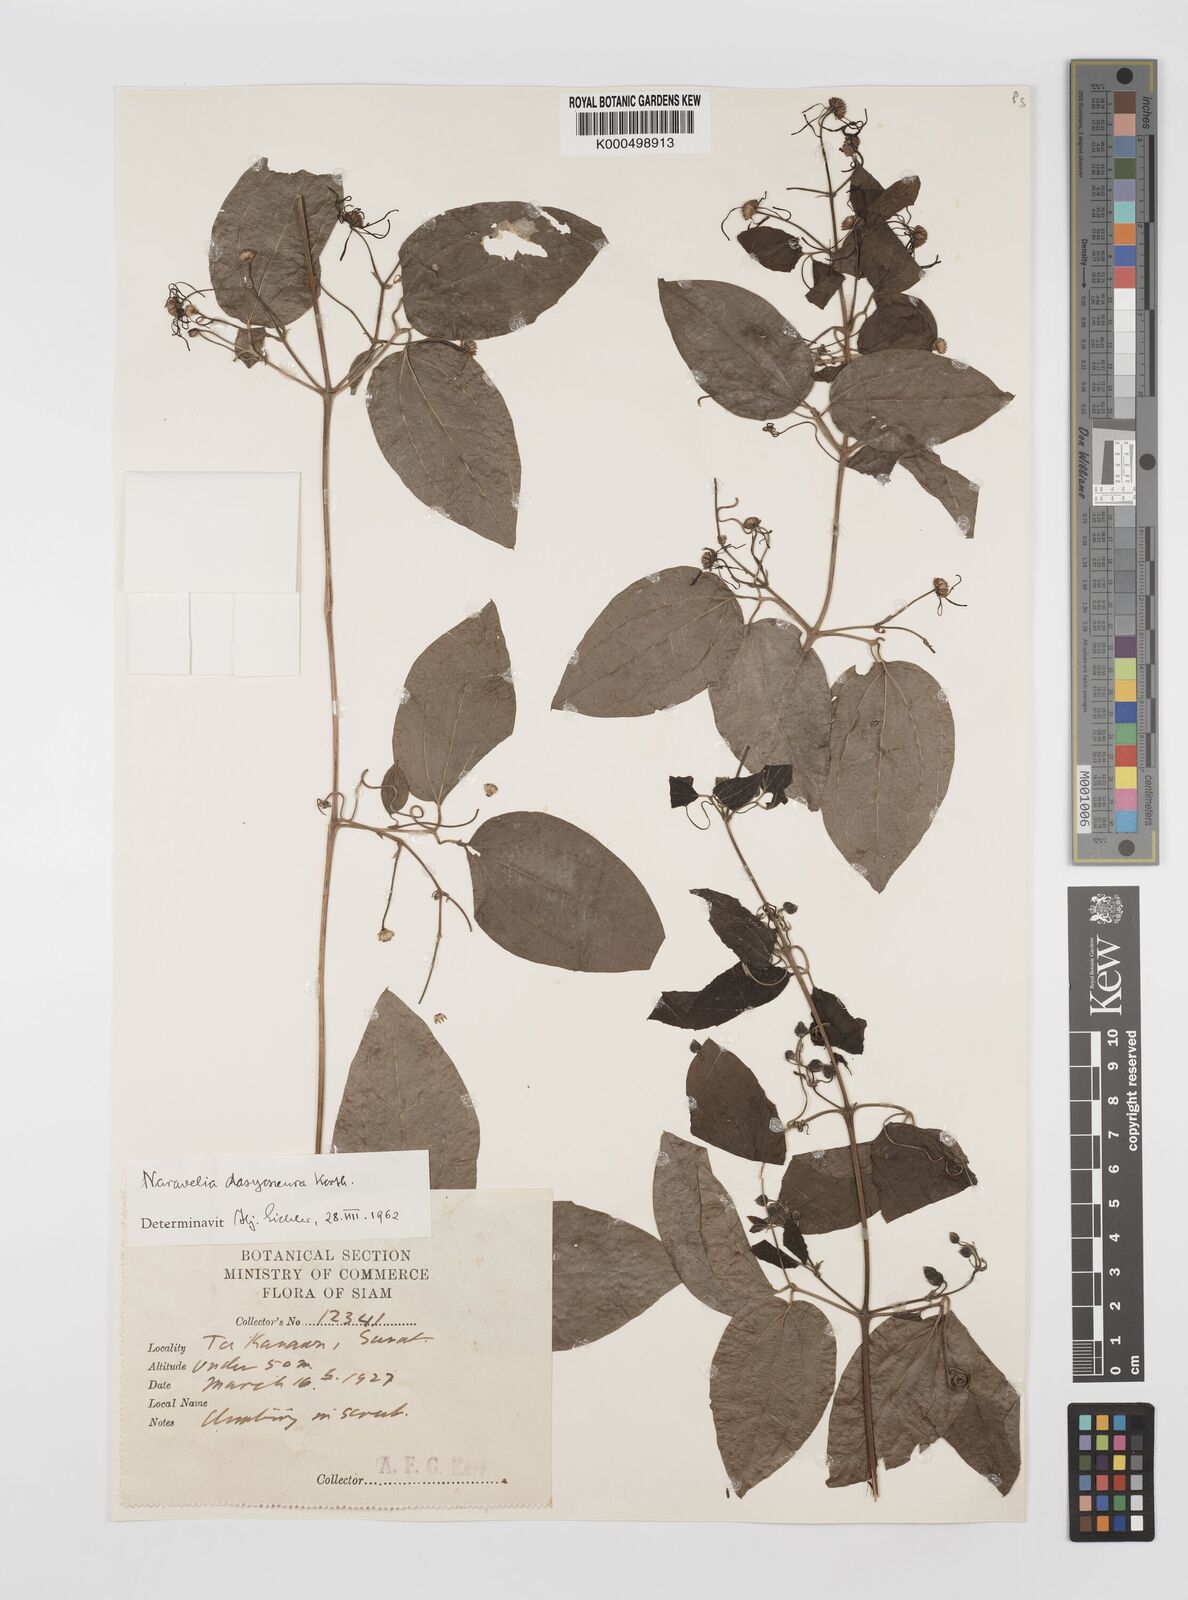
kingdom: Plantae
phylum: Tracheophyta
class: Magnoliopsida
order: Ranunculales
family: Ranunculaceae
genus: Clematis
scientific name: Clematis dasyoneura
